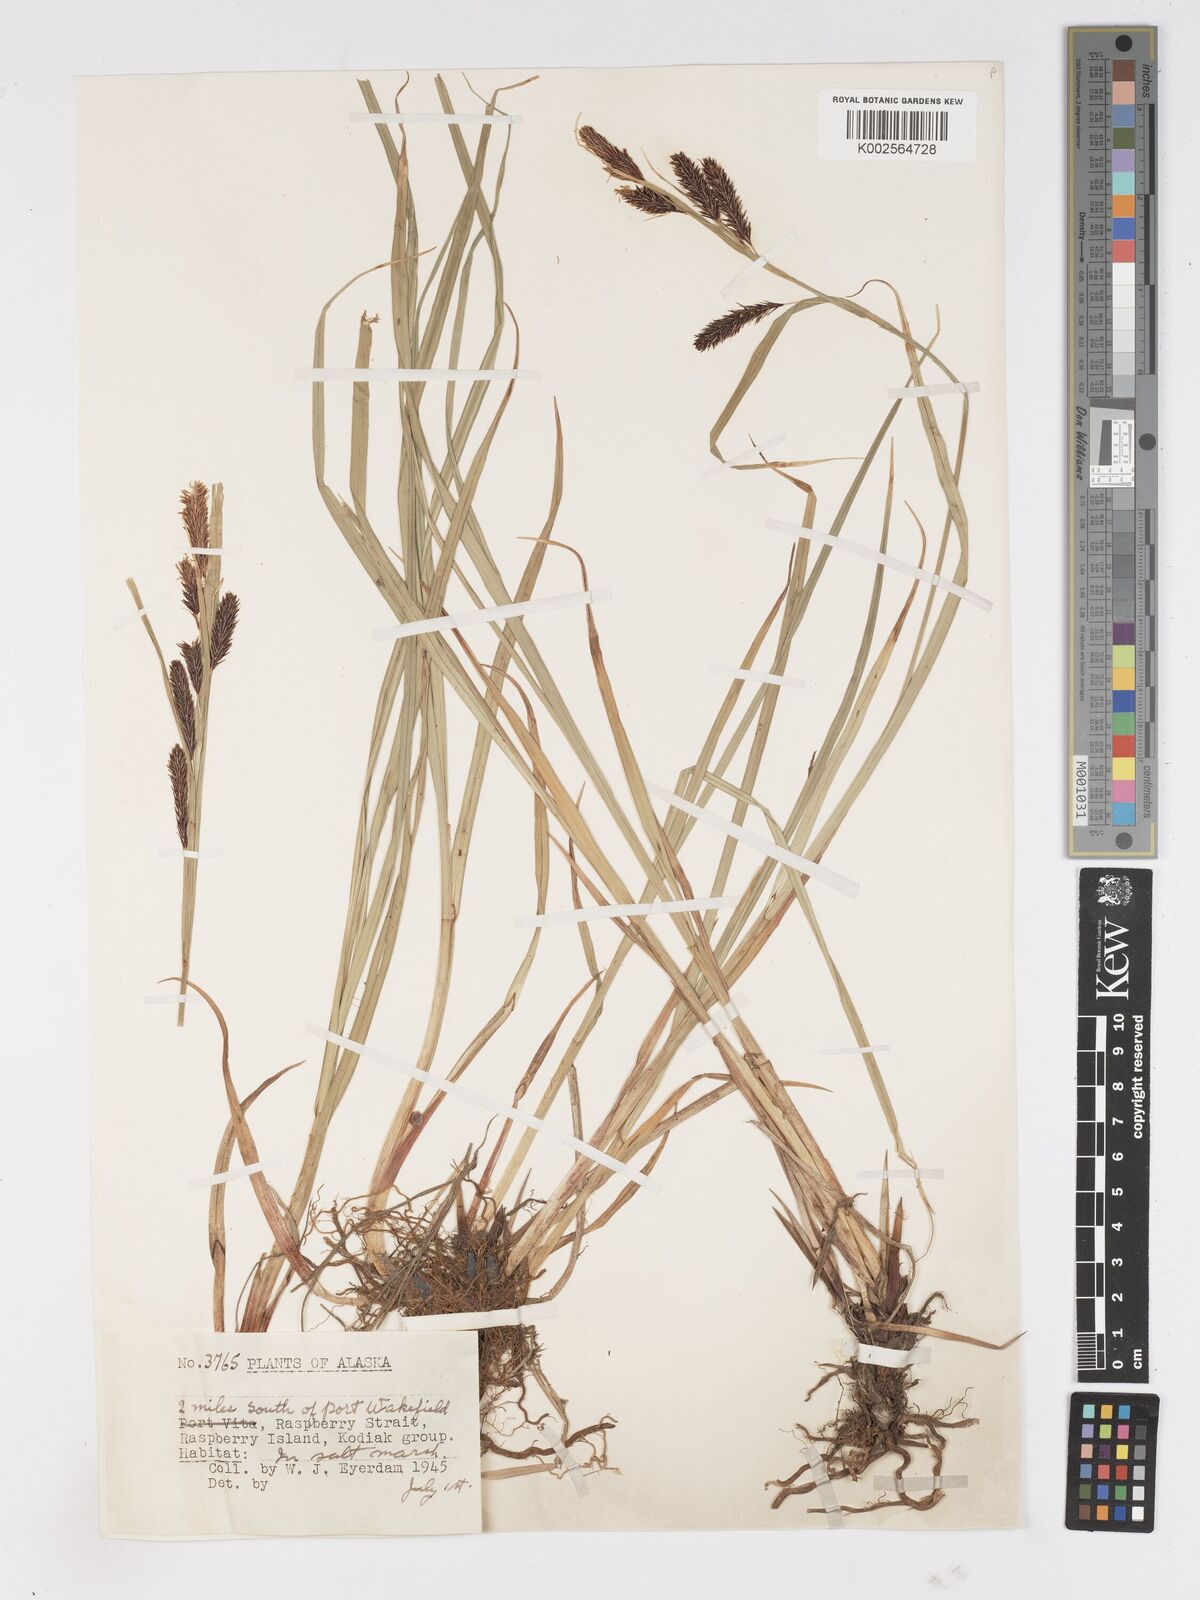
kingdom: Plantae
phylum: Tracheophyta
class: Liliopsida
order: Poales
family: Cyperaceae
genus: Carex
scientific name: Carex
